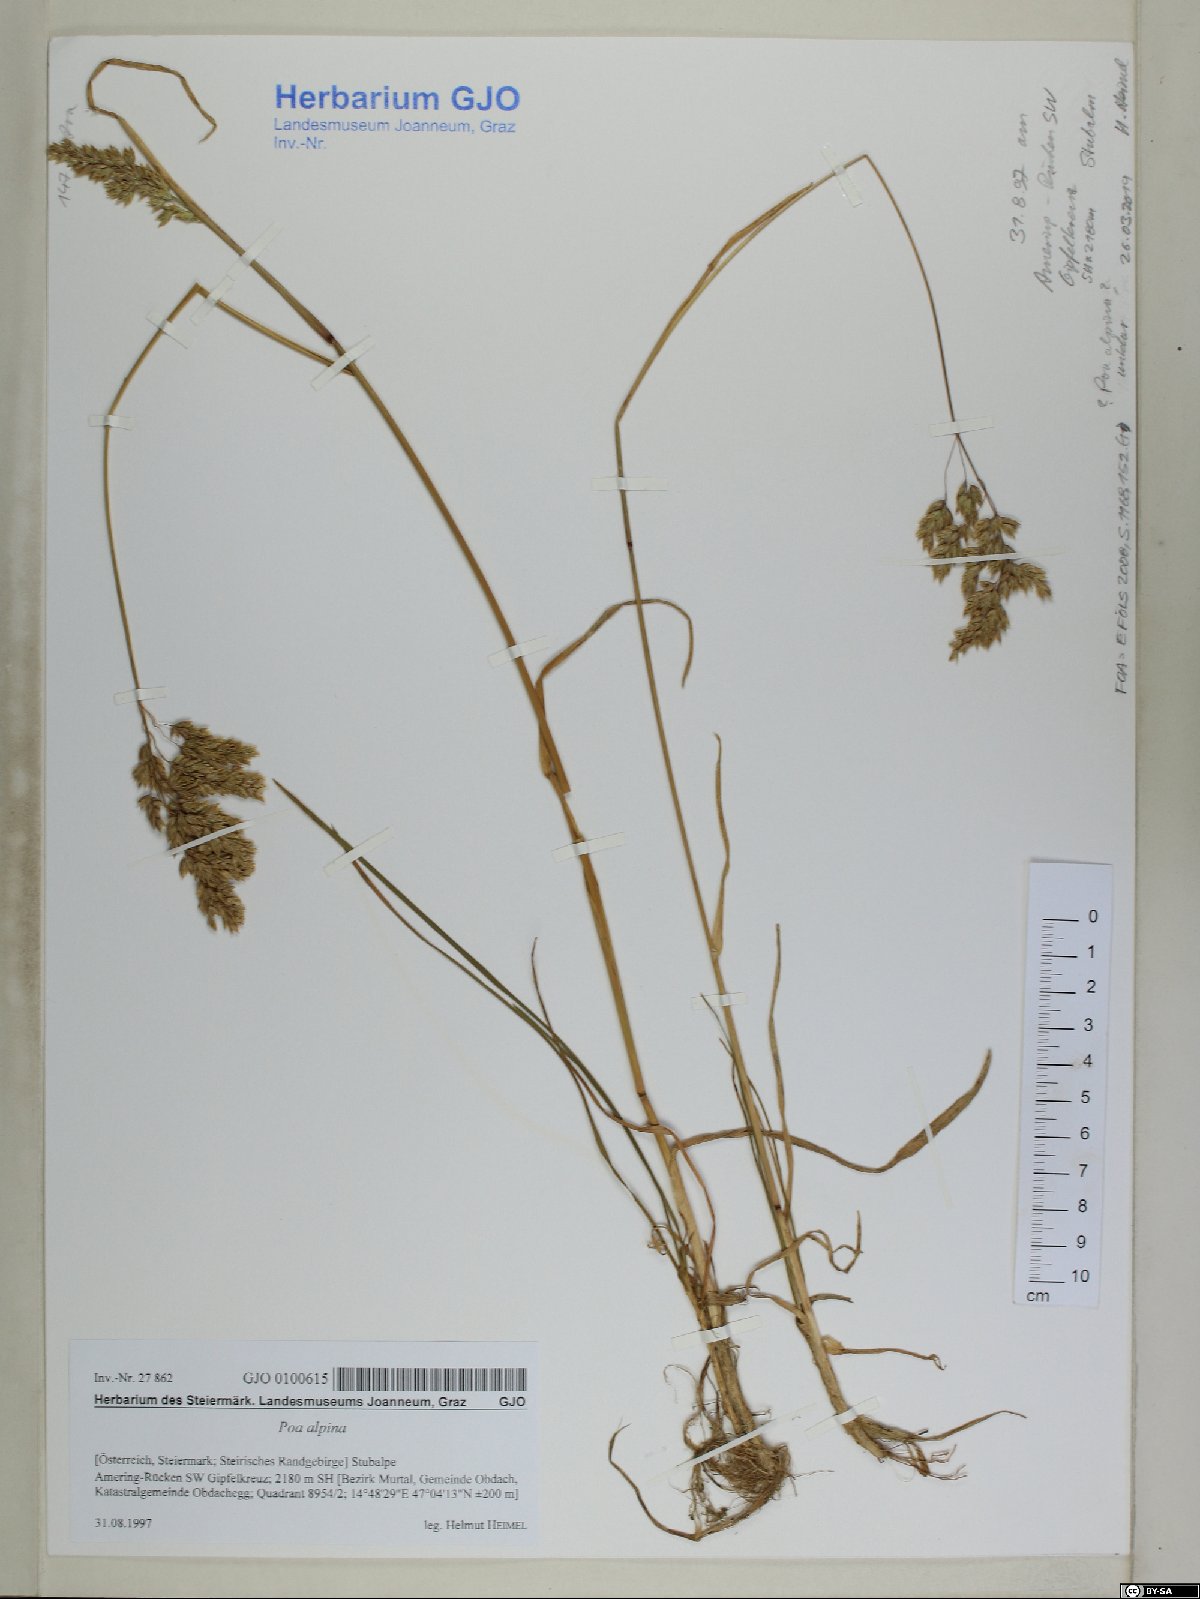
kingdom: Plantae
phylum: Tracheophyta
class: Liliopsida
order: Poales
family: Poaceae
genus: Poa
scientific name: Poa alpina
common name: Alpine bluegrass
